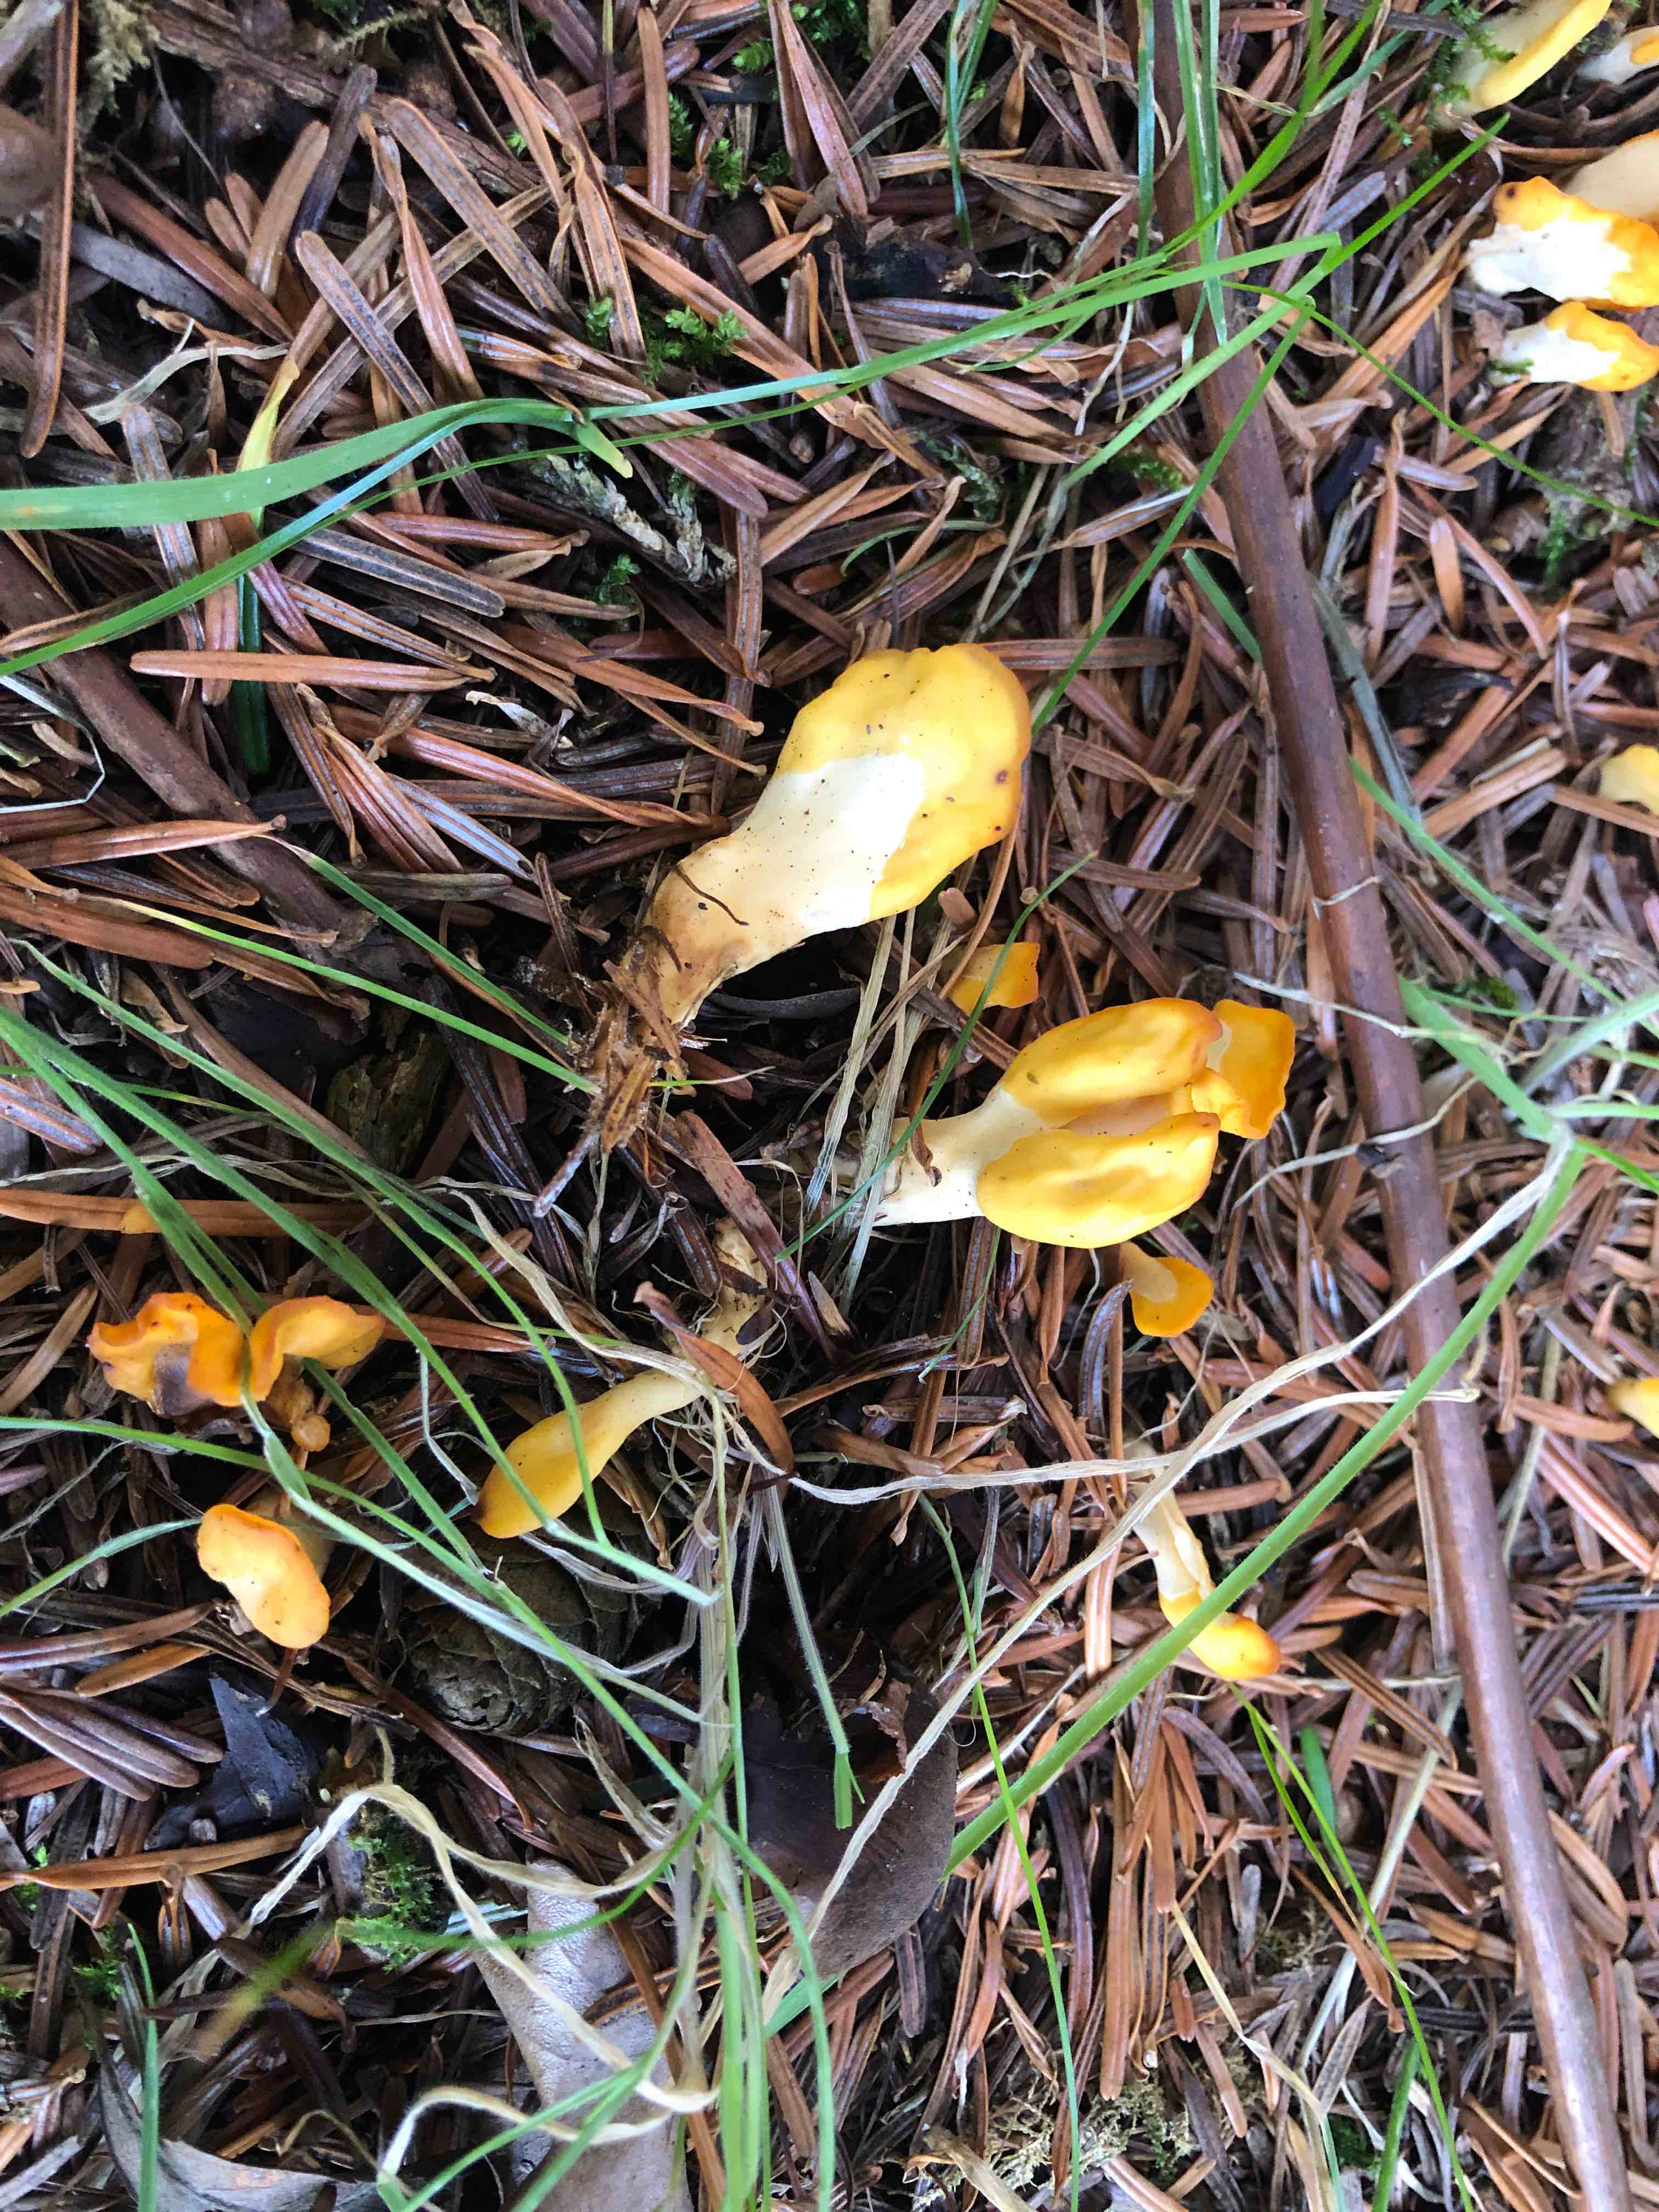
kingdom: Fungi
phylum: Ascomycota
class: Leotiomycetes
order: Rhytismatales
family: Cudoniaceae
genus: Spathularia
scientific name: Spathularia flavida
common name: gul spatelsvamp
